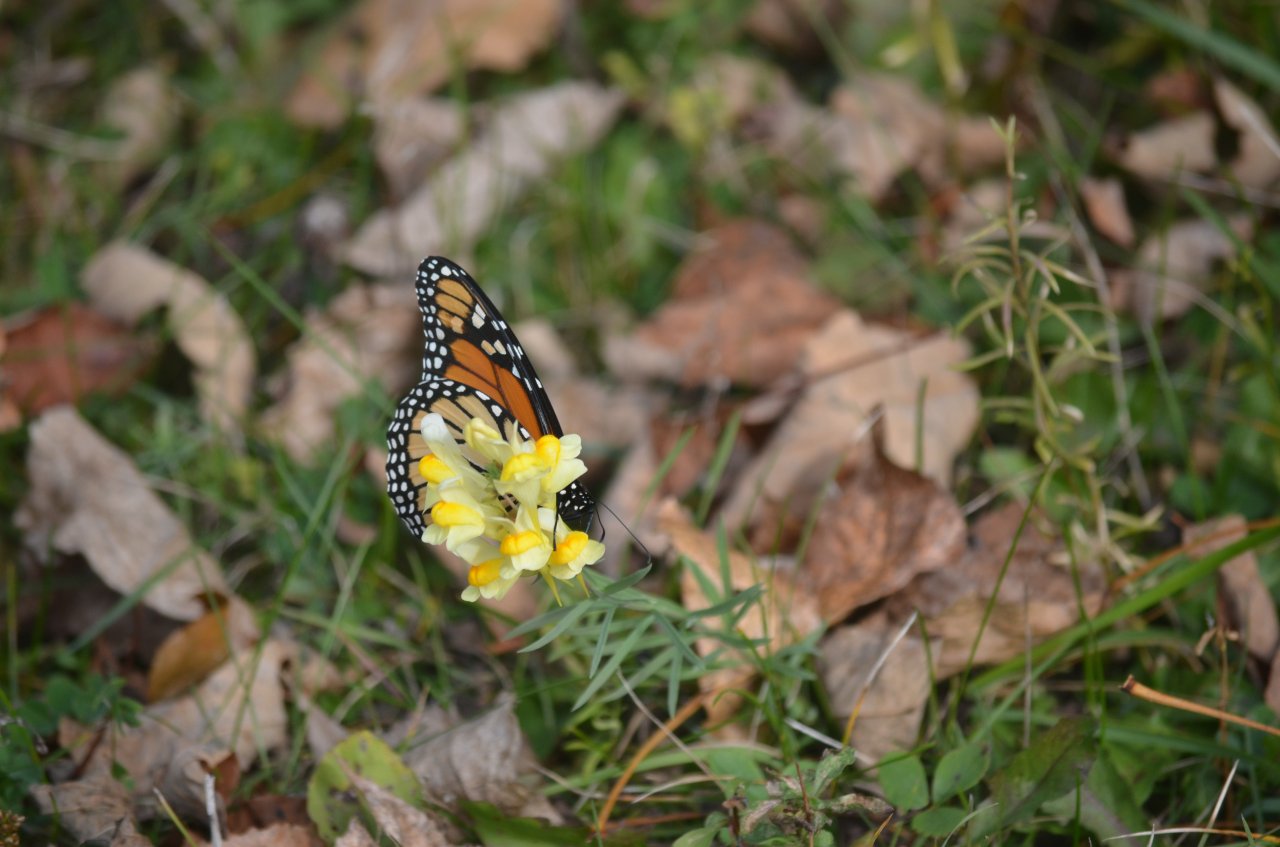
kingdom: Animalia
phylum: Arthropoda
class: Insecta
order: Lepidoptera
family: Nymphalidae
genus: Danaus
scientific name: Danaus plexippus
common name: Monarch
